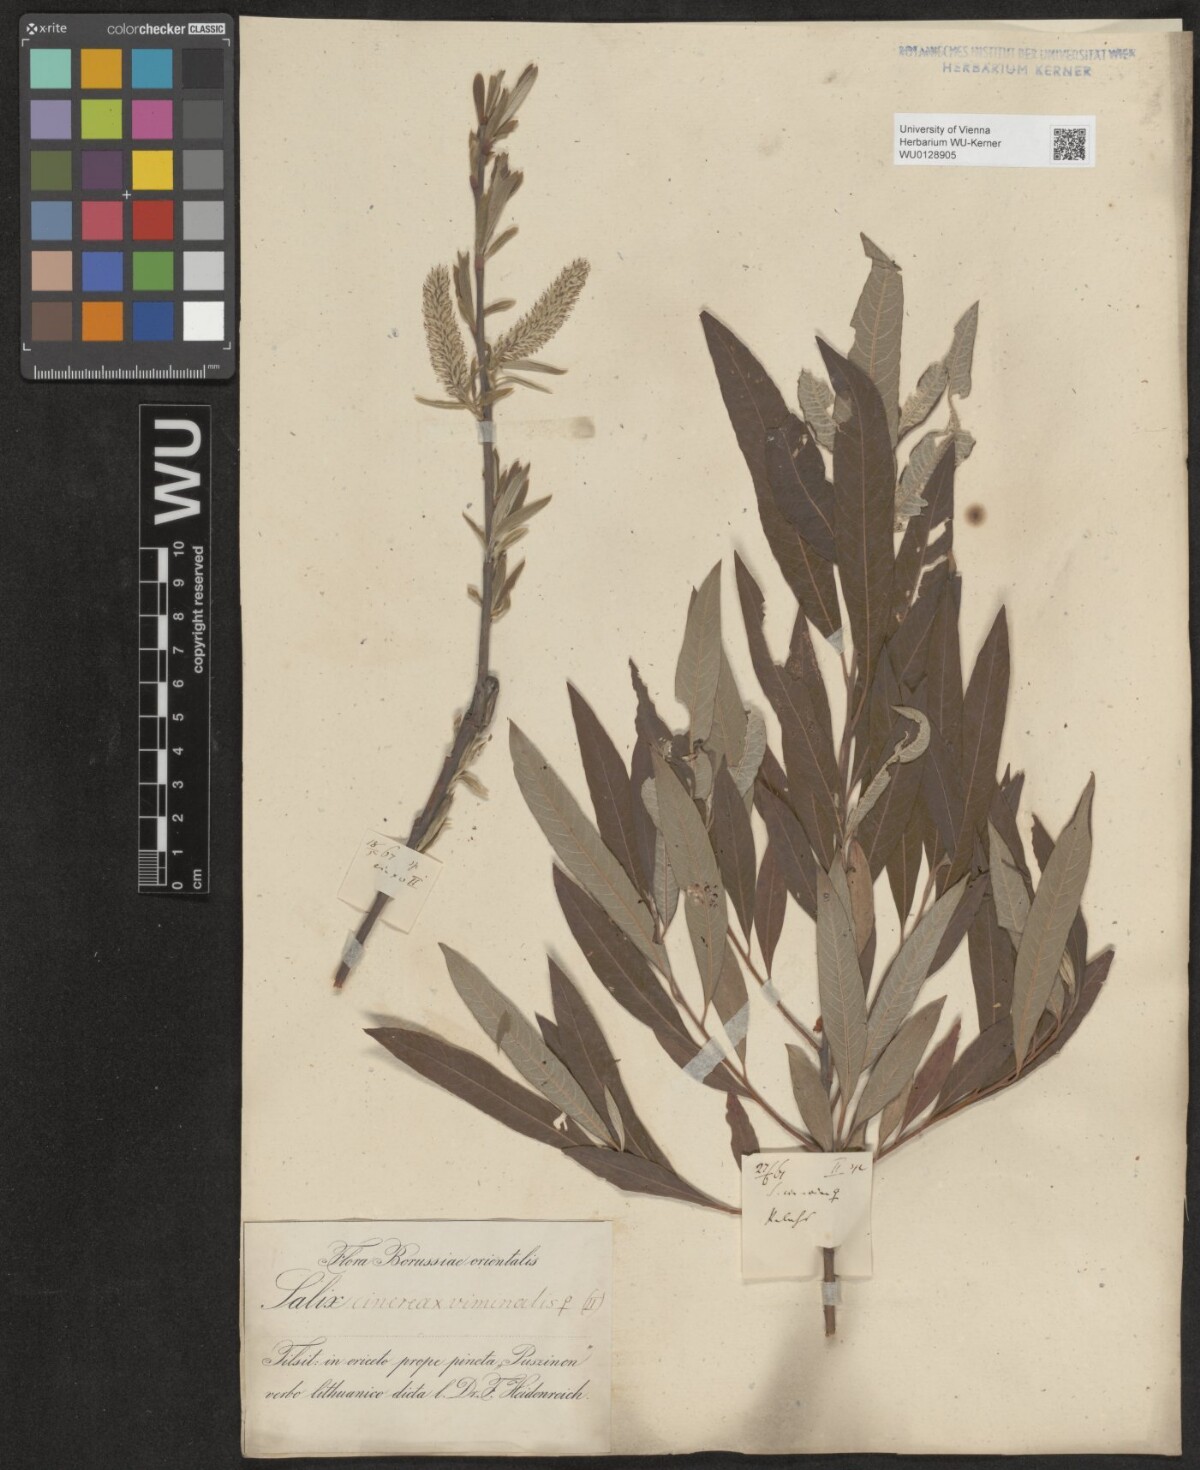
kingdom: Plantae
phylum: Tracheophyta
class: Magnoliopsida
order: Malpighiales
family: Salicaceae
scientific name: Salicaceae
